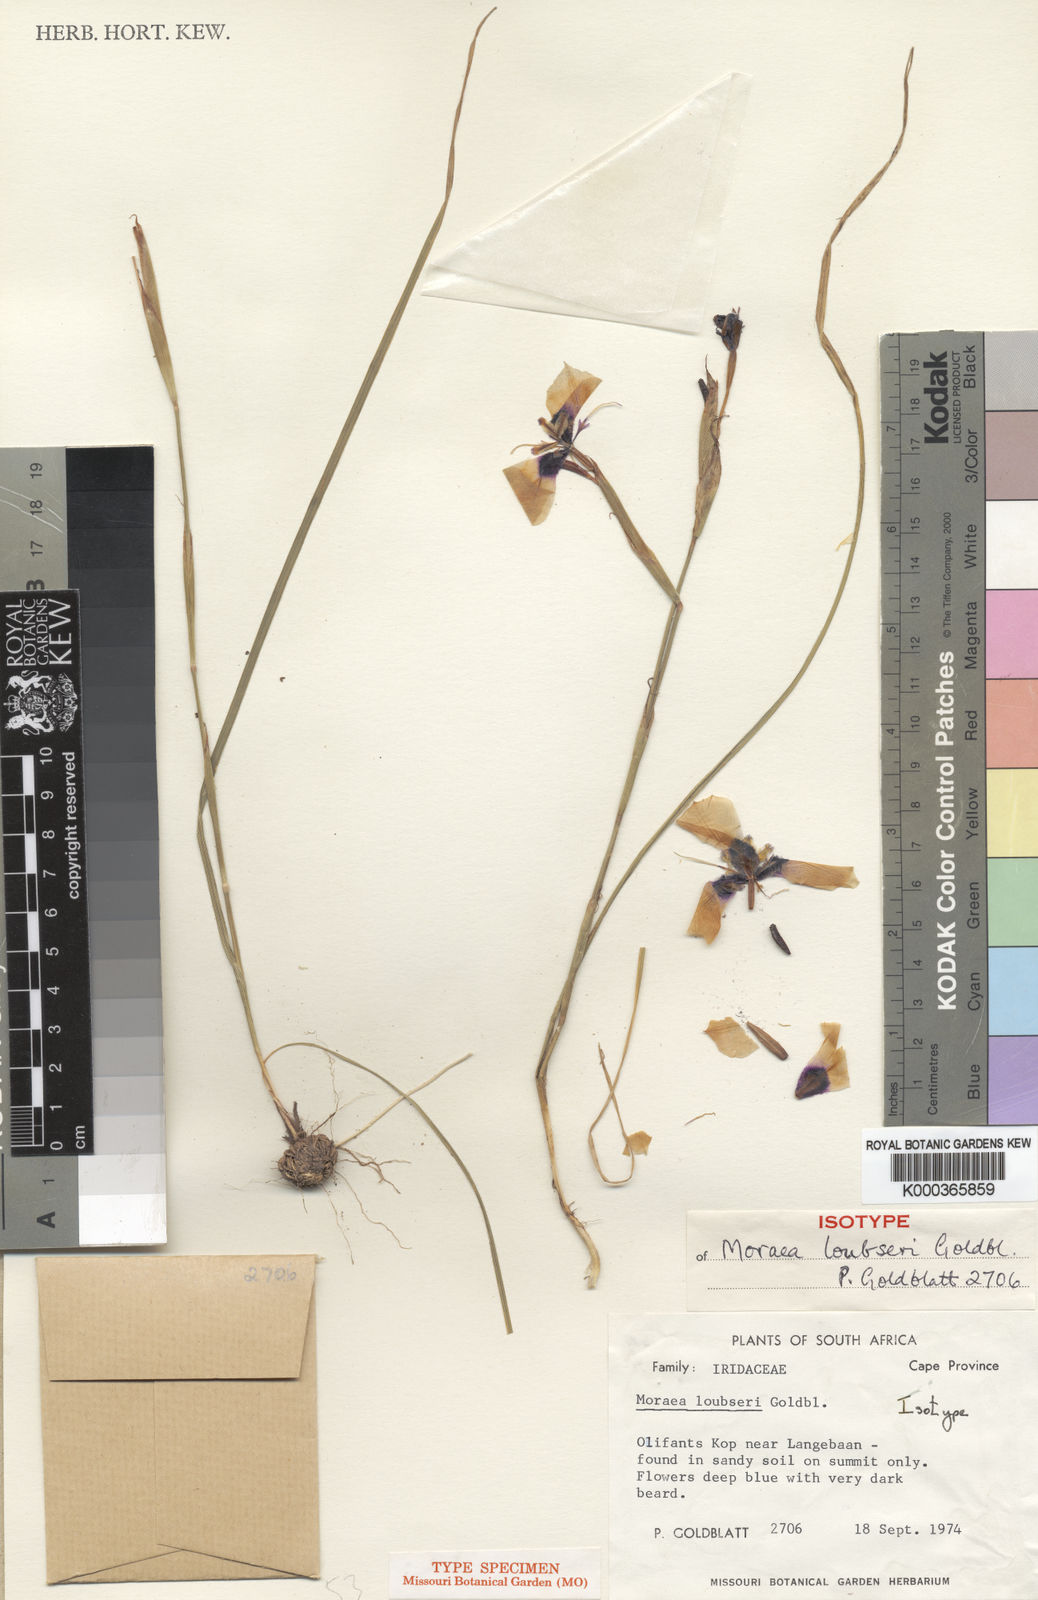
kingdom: Plantae
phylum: Tracheophyta
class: Liliopsida
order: Asparagales
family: Iridaceae
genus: Moraea
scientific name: Moraea loubseri
